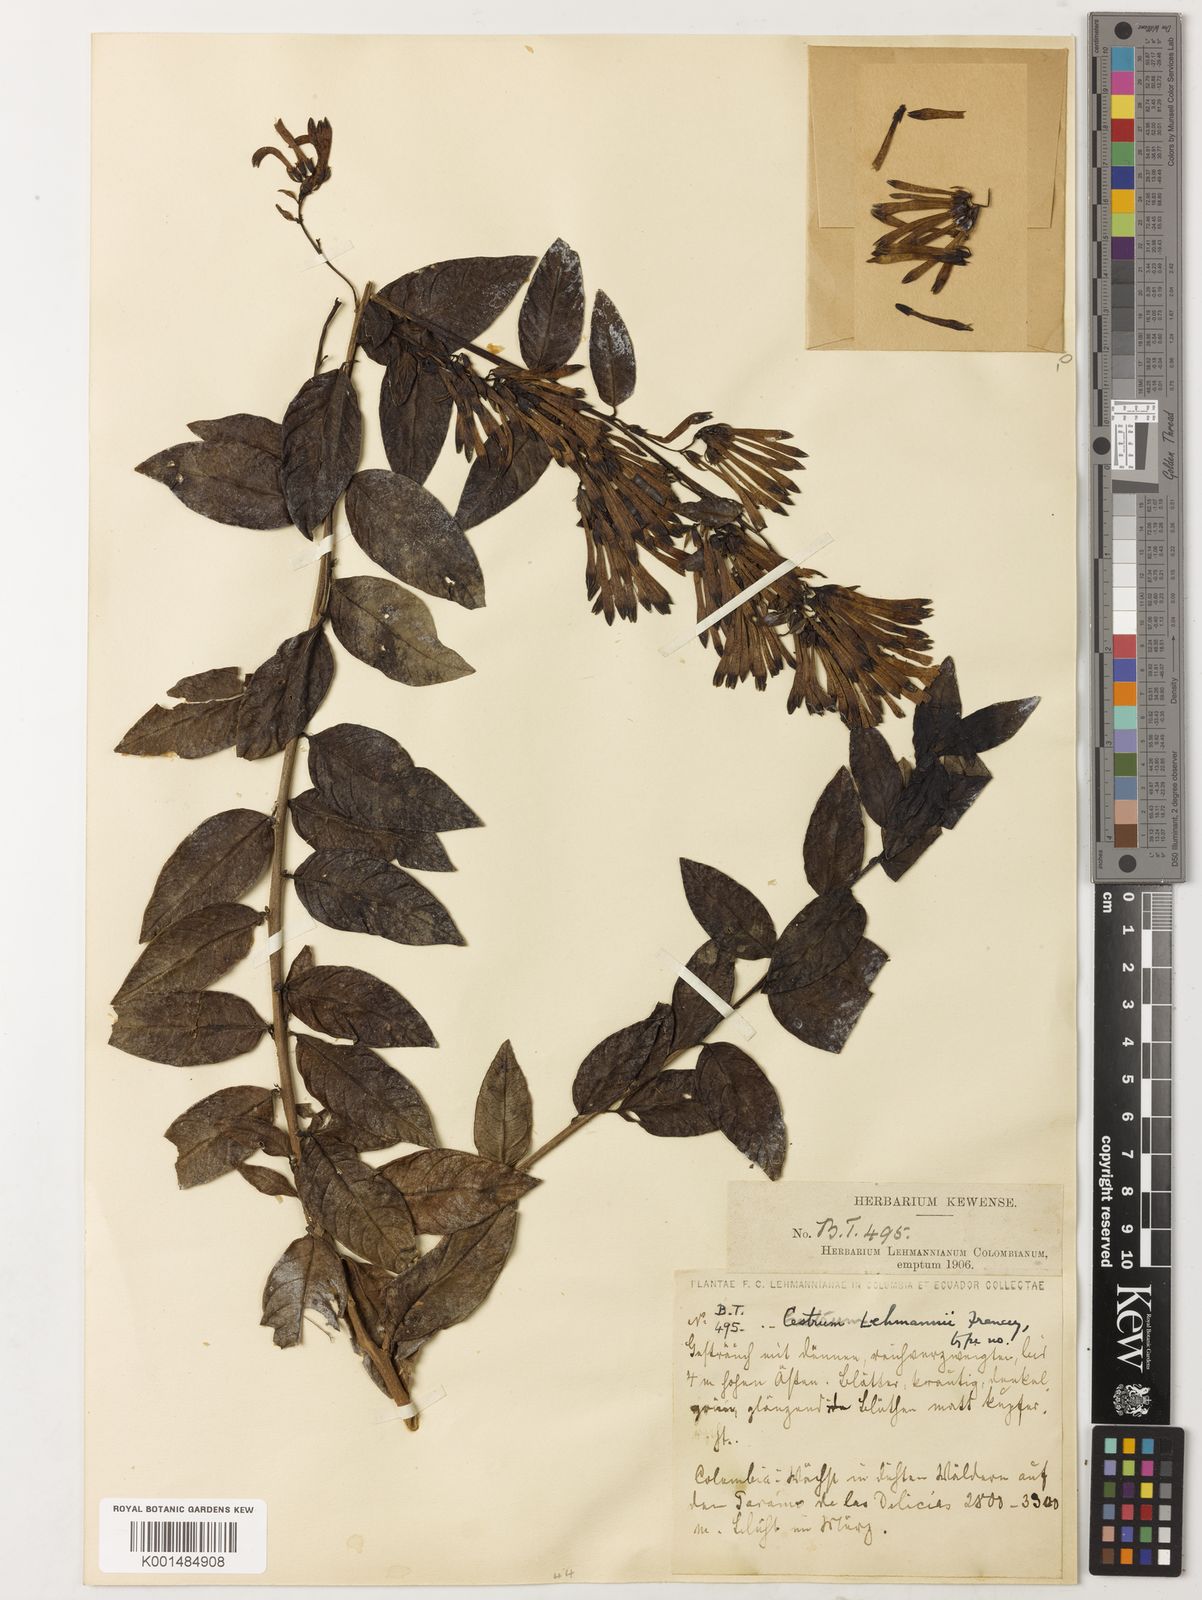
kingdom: Plantae
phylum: Tracheophyta
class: Magnoliopsida
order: Solanales
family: Solanaceae
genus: Cestrum
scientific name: Cestrum lehmannii
